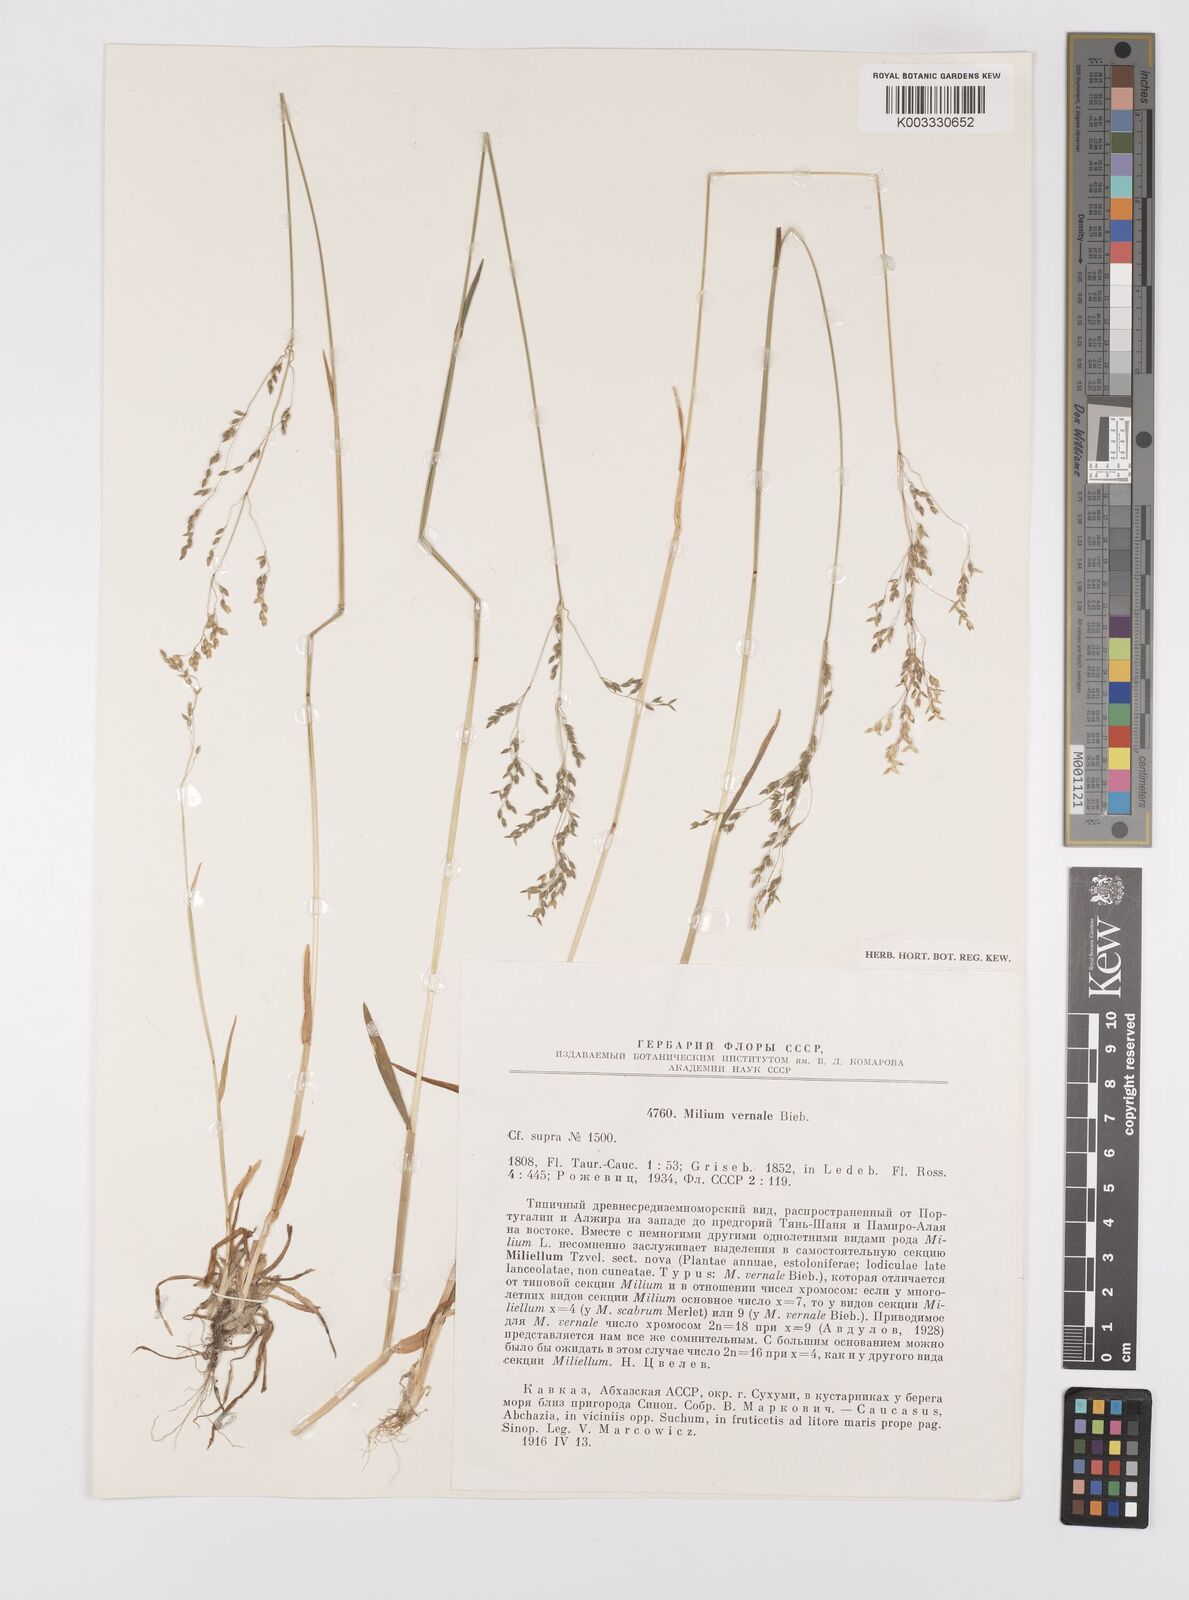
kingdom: Plantae
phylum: Tracheophyta
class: Liliopsida
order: Poales
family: Poaceae
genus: Milium
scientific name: Milium vernale
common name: Early millet
